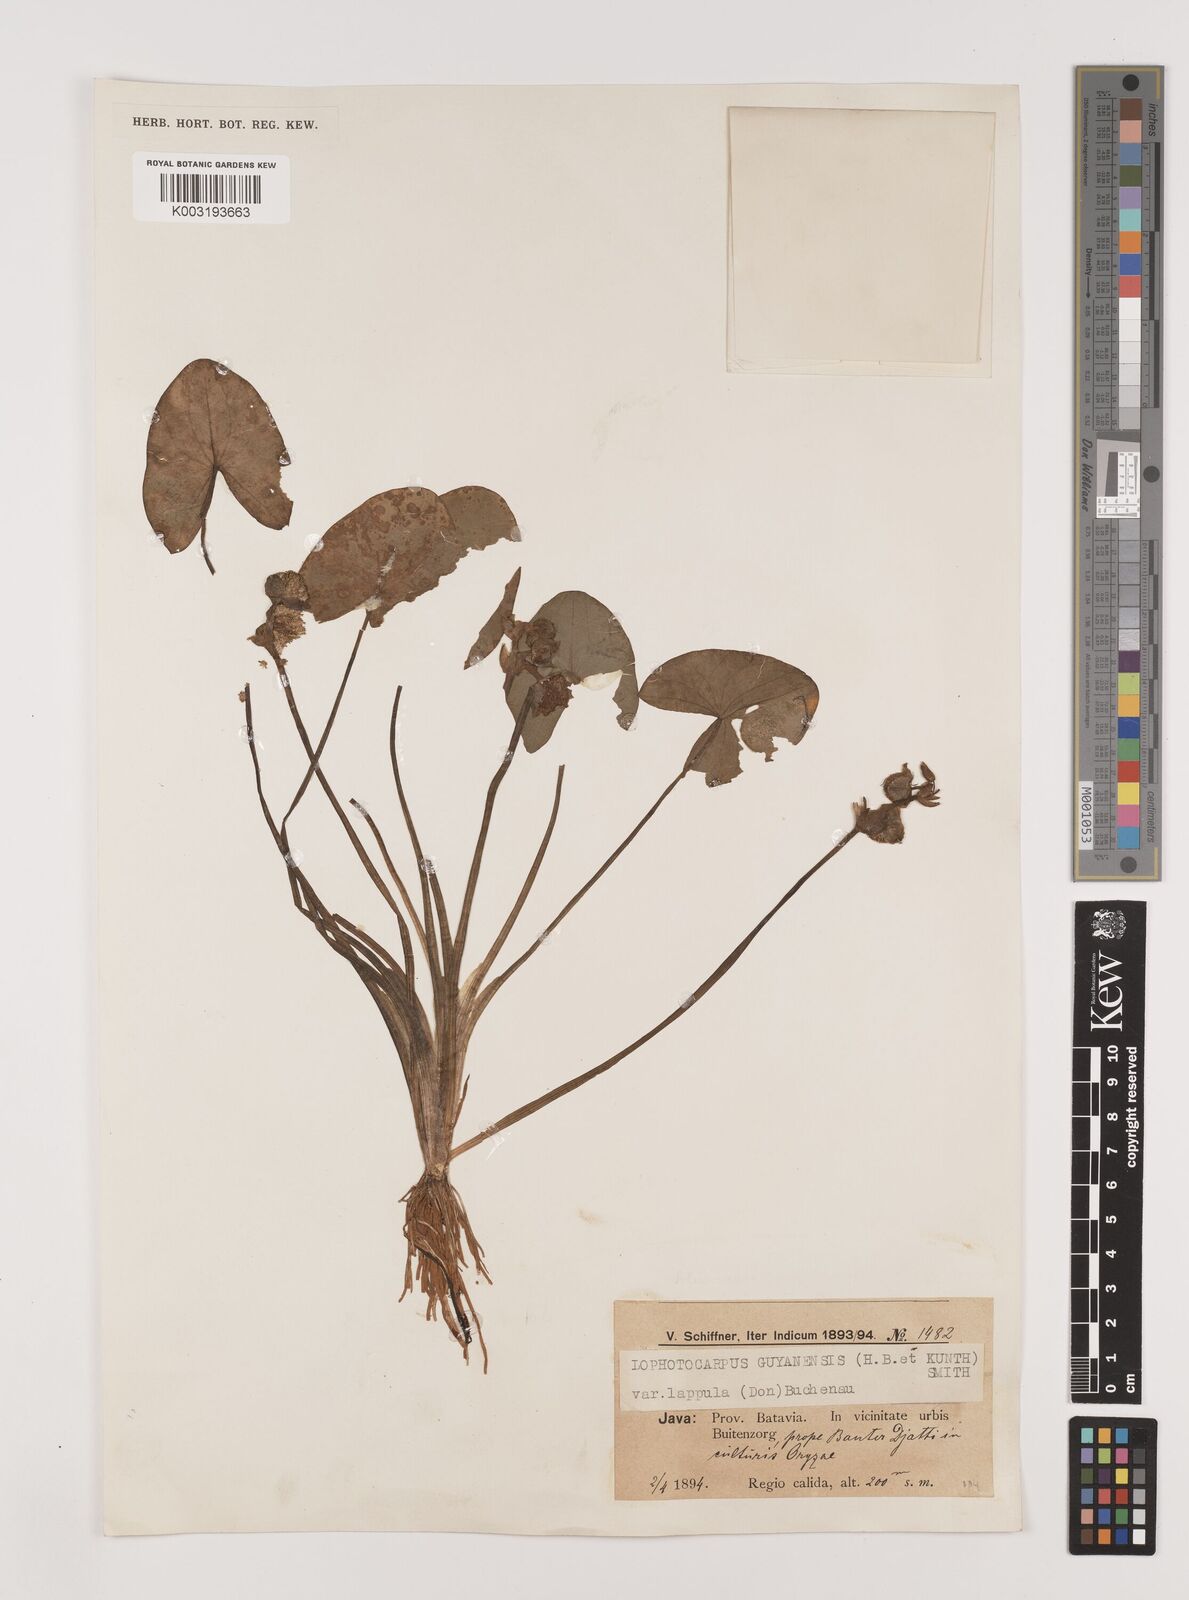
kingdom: Plantae
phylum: Tracheophyta
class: Liliopsida
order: Alismatales
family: Alismataceae
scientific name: Alismataceae
